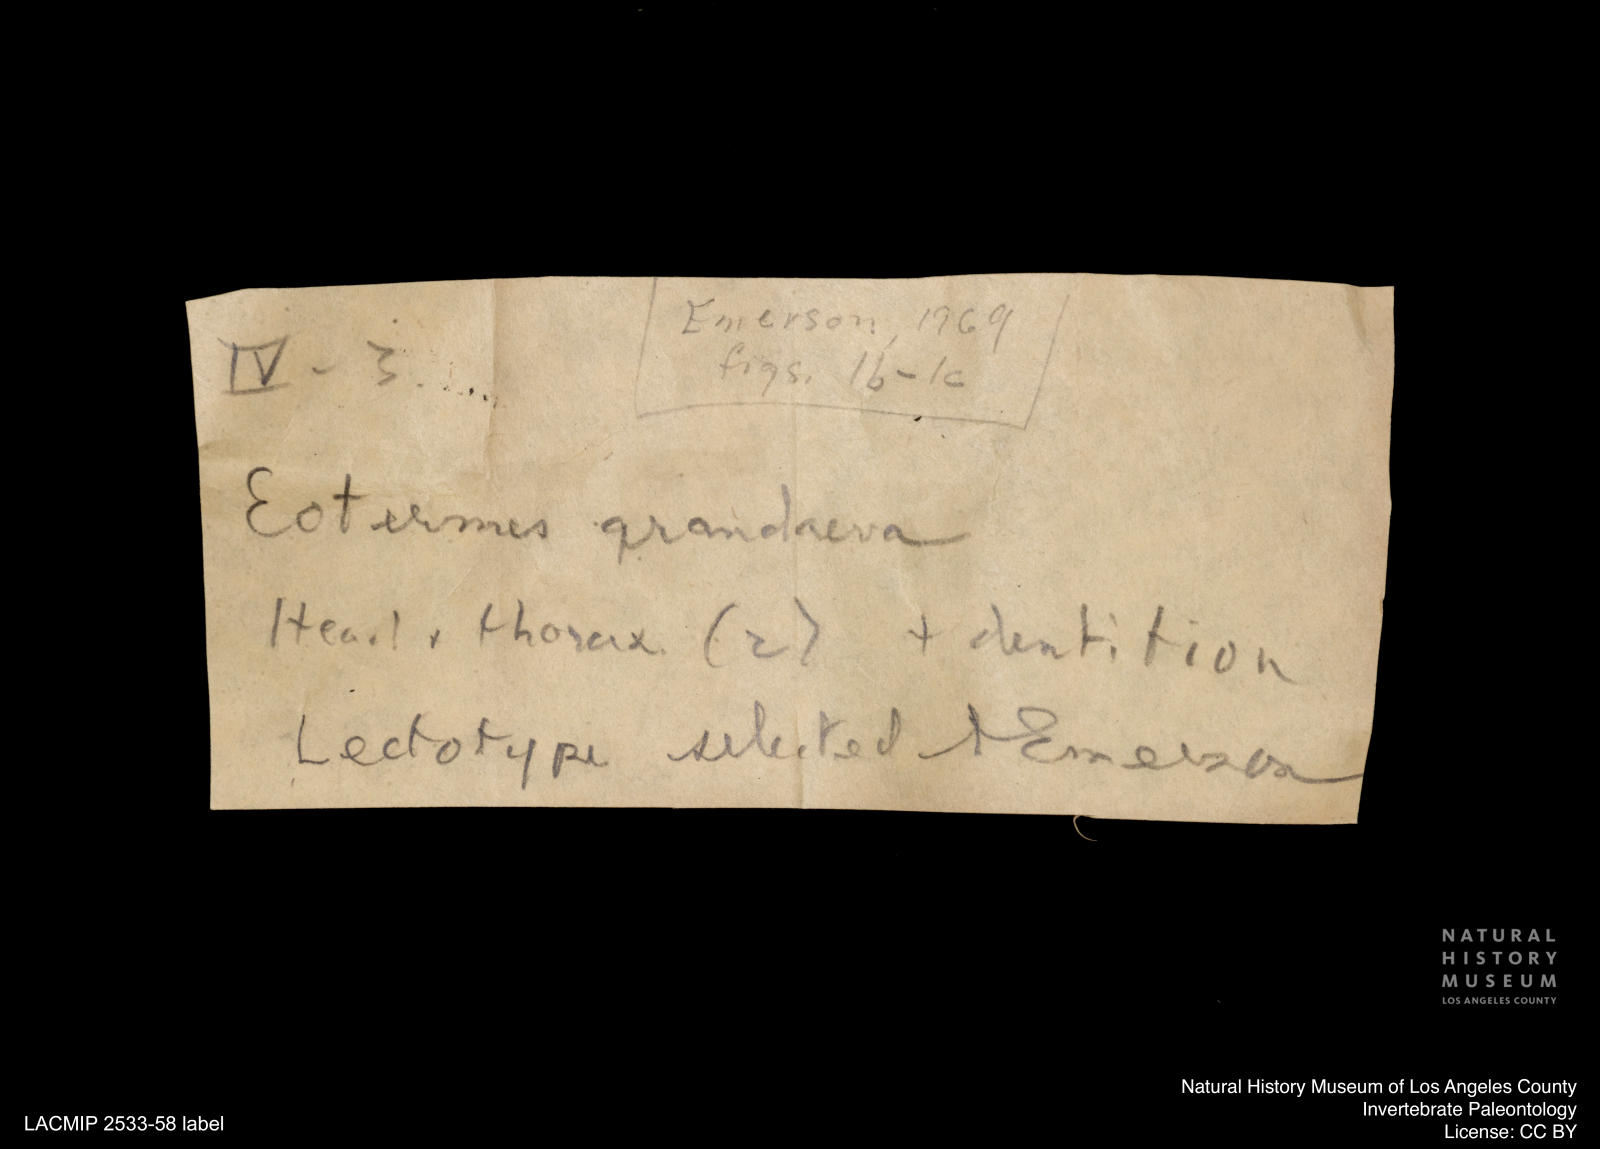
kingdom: Animalia
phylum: Arthropoda
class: Insecta
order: Blattodea
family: Kalotermitidae
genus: Eotermes
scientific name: Eotermes grandaeva
